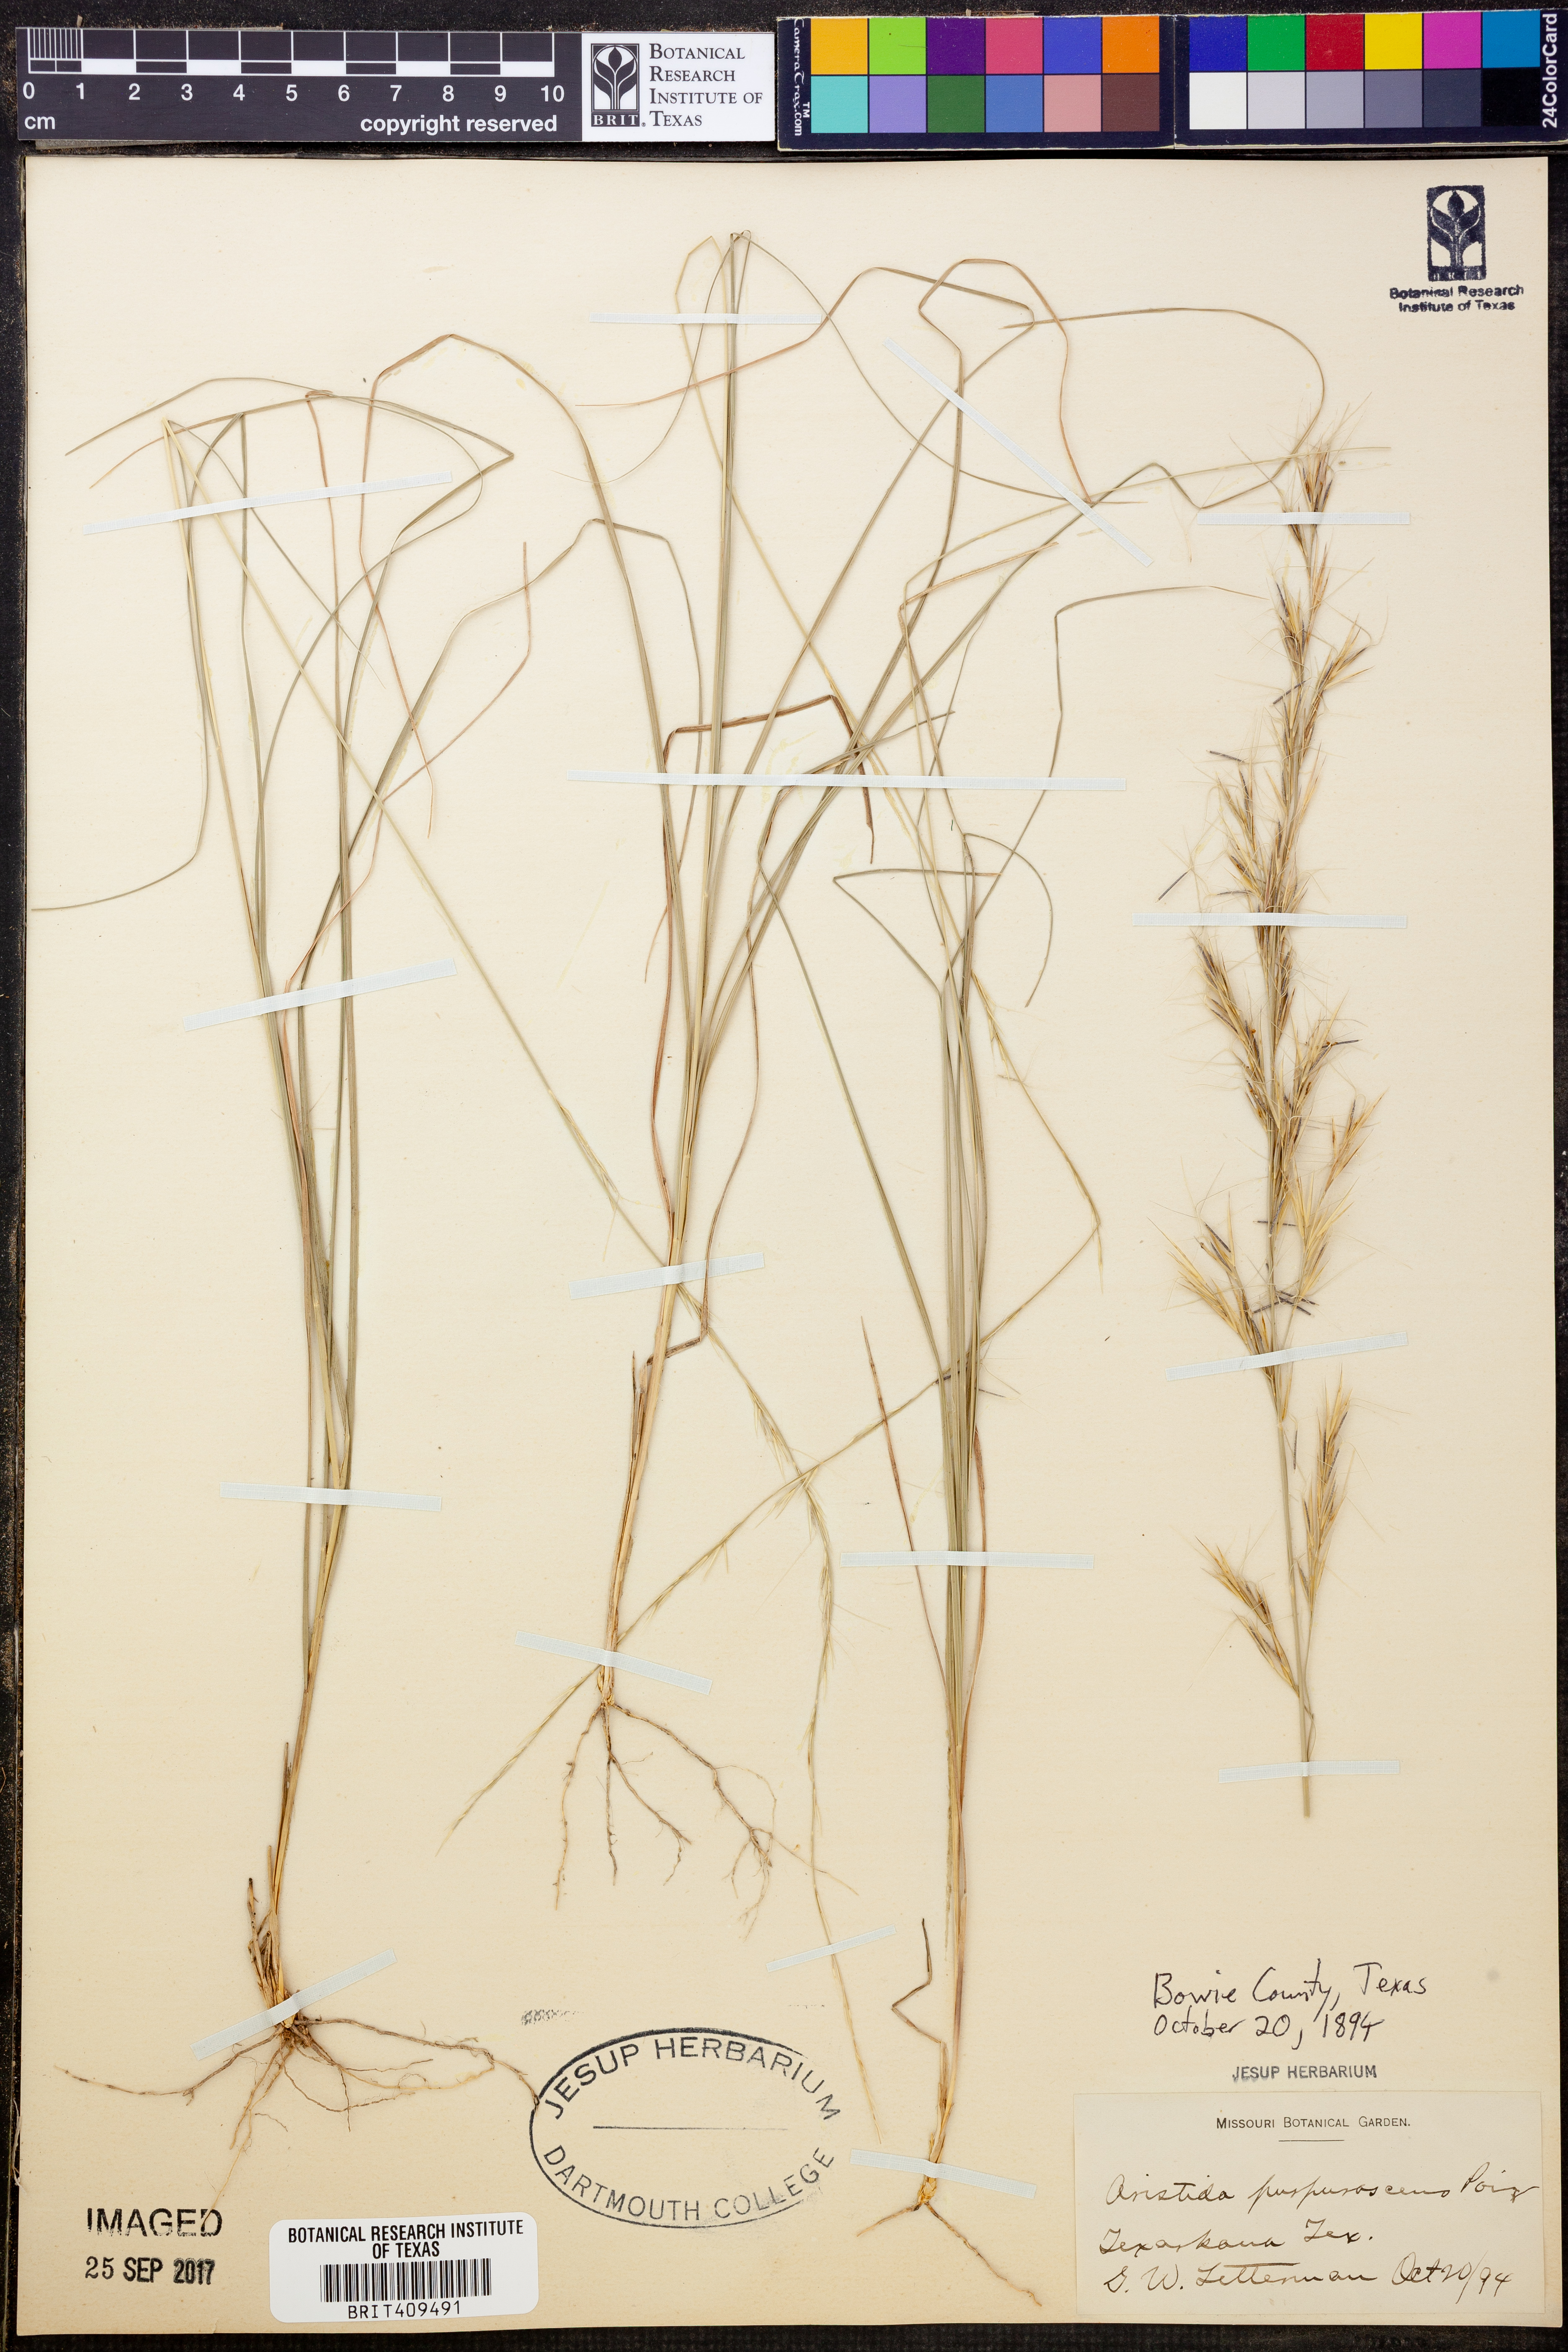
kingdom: Plantae
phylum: Tracheophyta
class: Liliopsida
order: Poales
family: Poaceae
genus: Aristida
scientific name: Aristida purpurascens
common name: Arrow-feather
